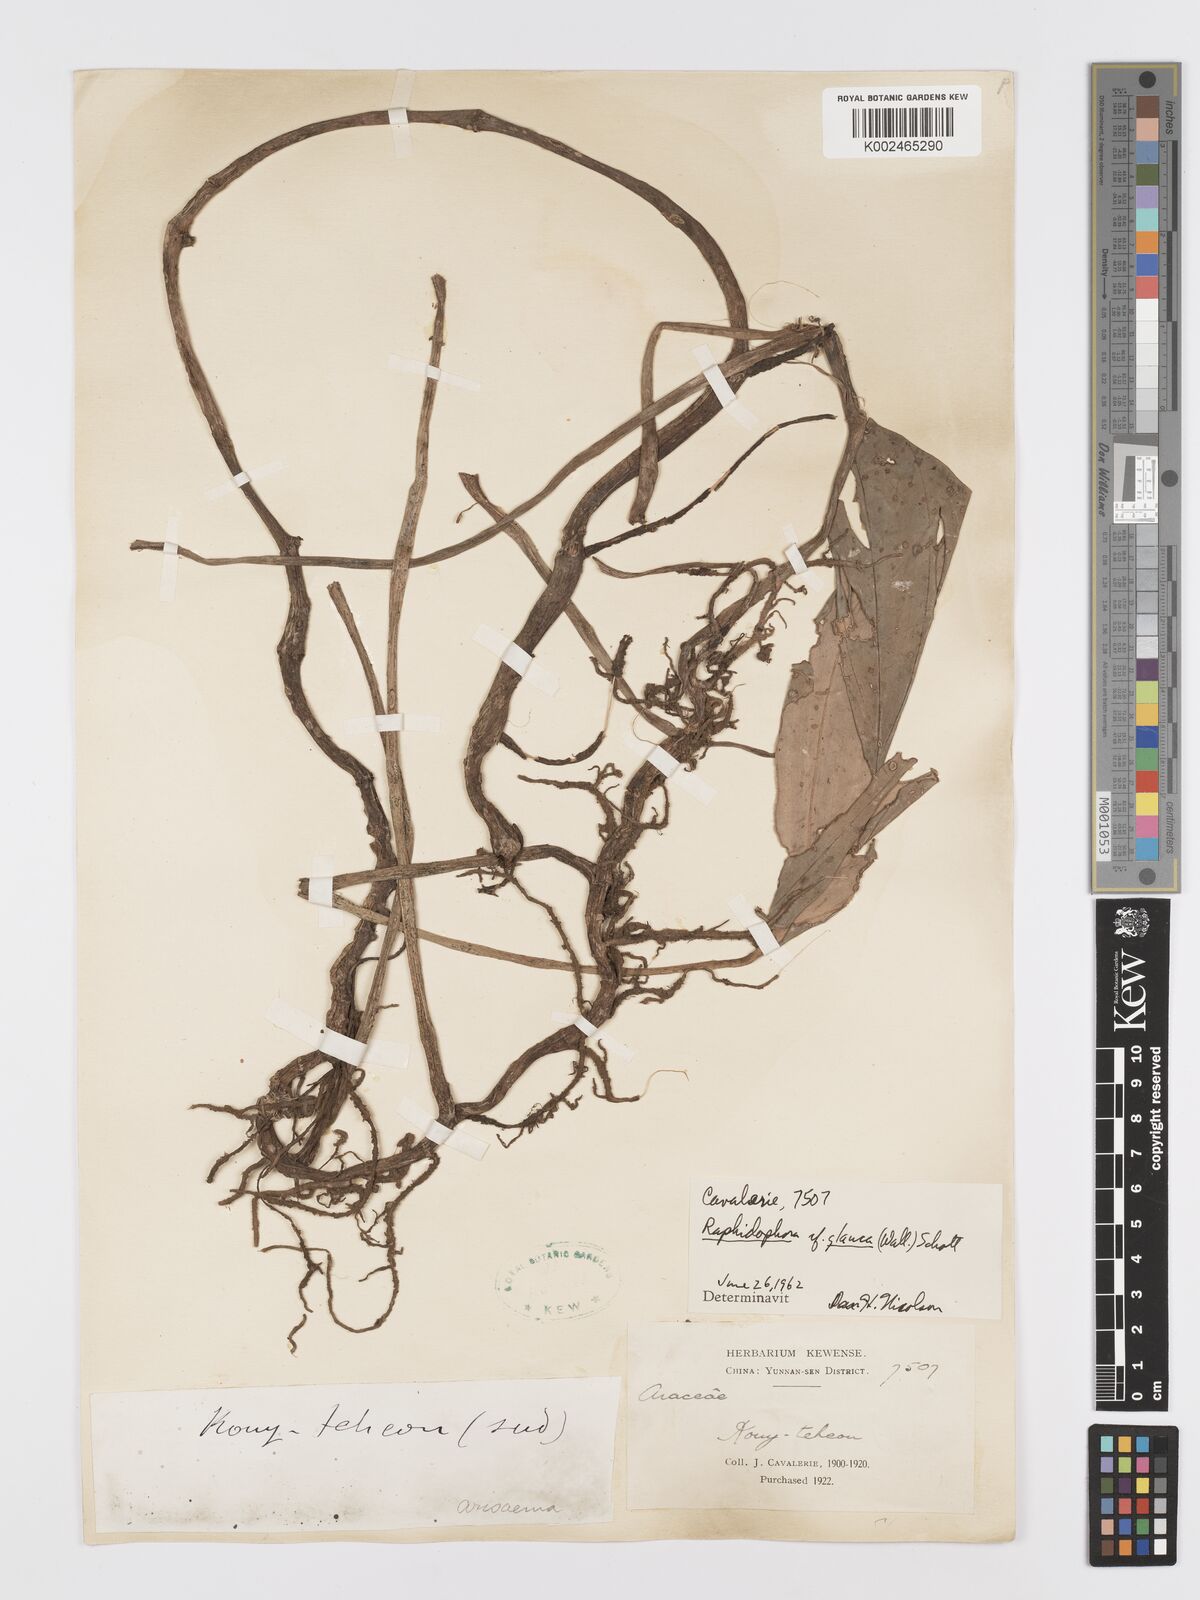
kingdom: Plantae
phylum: Tracheophyta
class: Liliopsida
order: Alismatales
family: Araceae
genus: Rhaphidophora
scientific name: Rhaphidophora glauca
